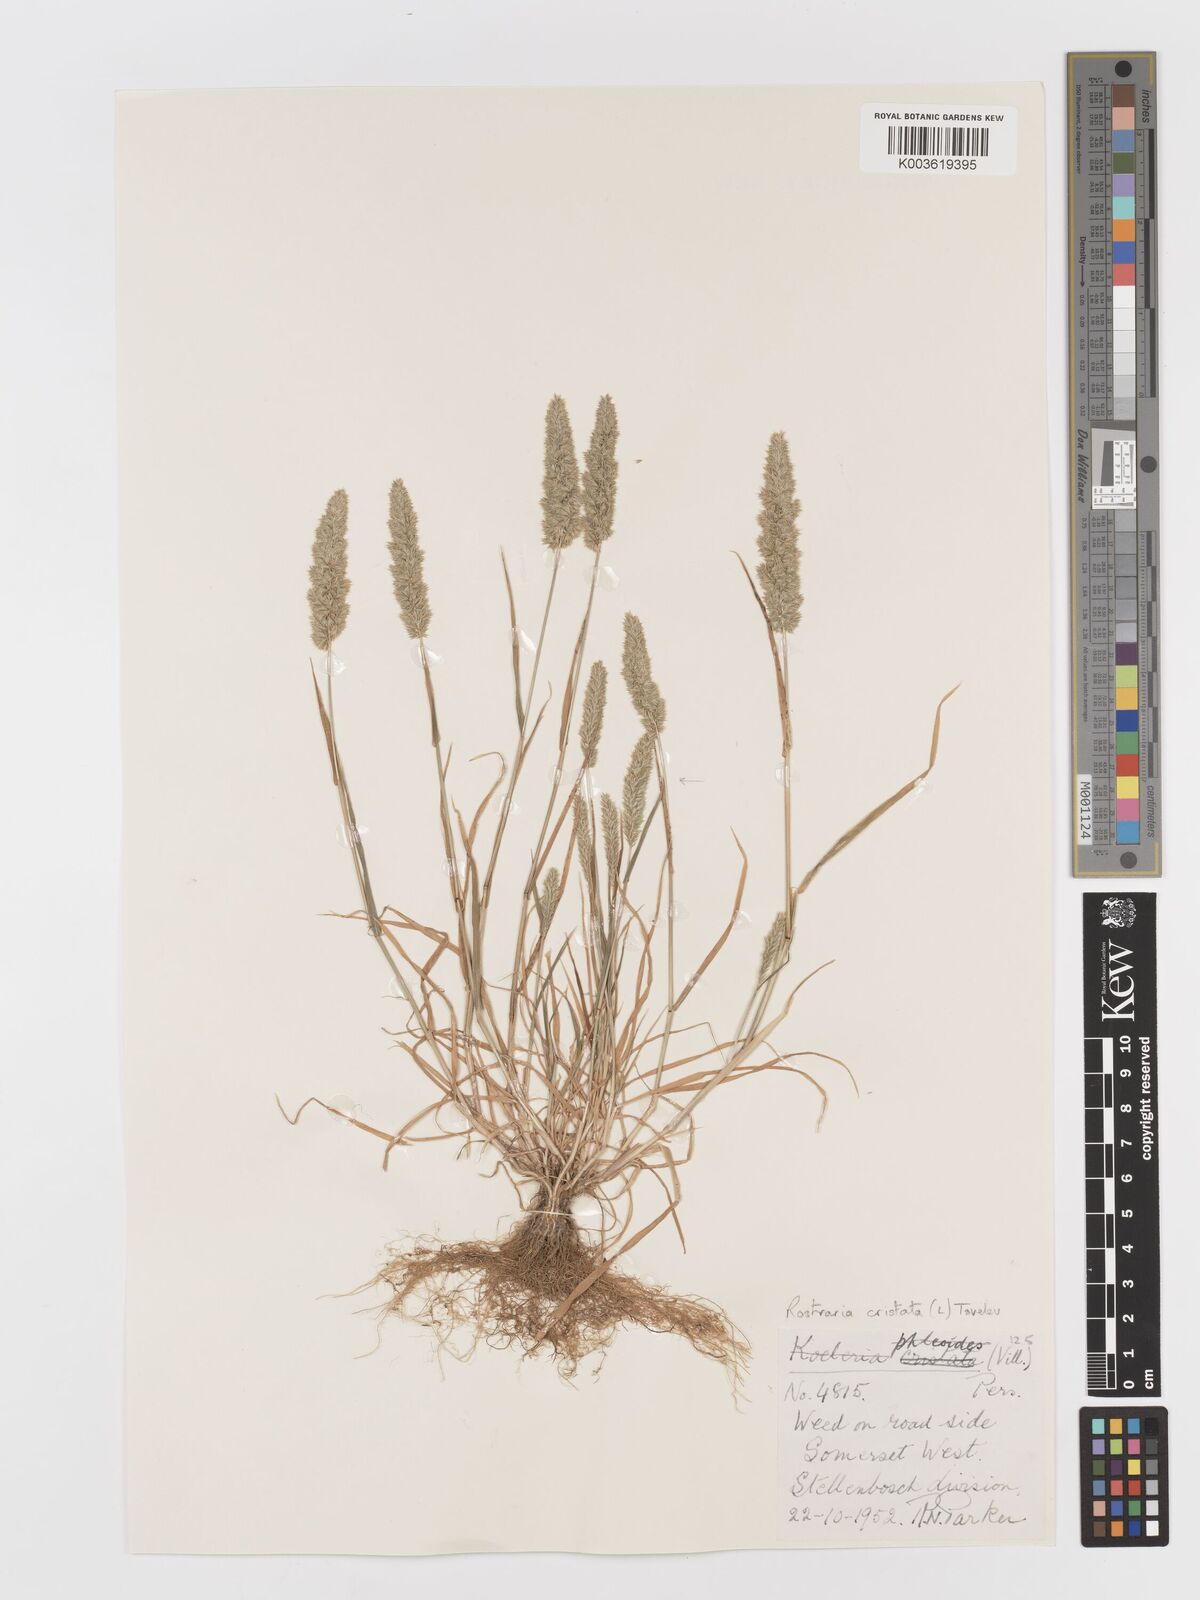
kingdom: Plantae
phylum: Tracheophyta
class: Liliopsida
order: Poales
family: Poaceae
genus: Rostraria
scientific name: Rostraria cristata
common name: Mediterranean hair-grass
